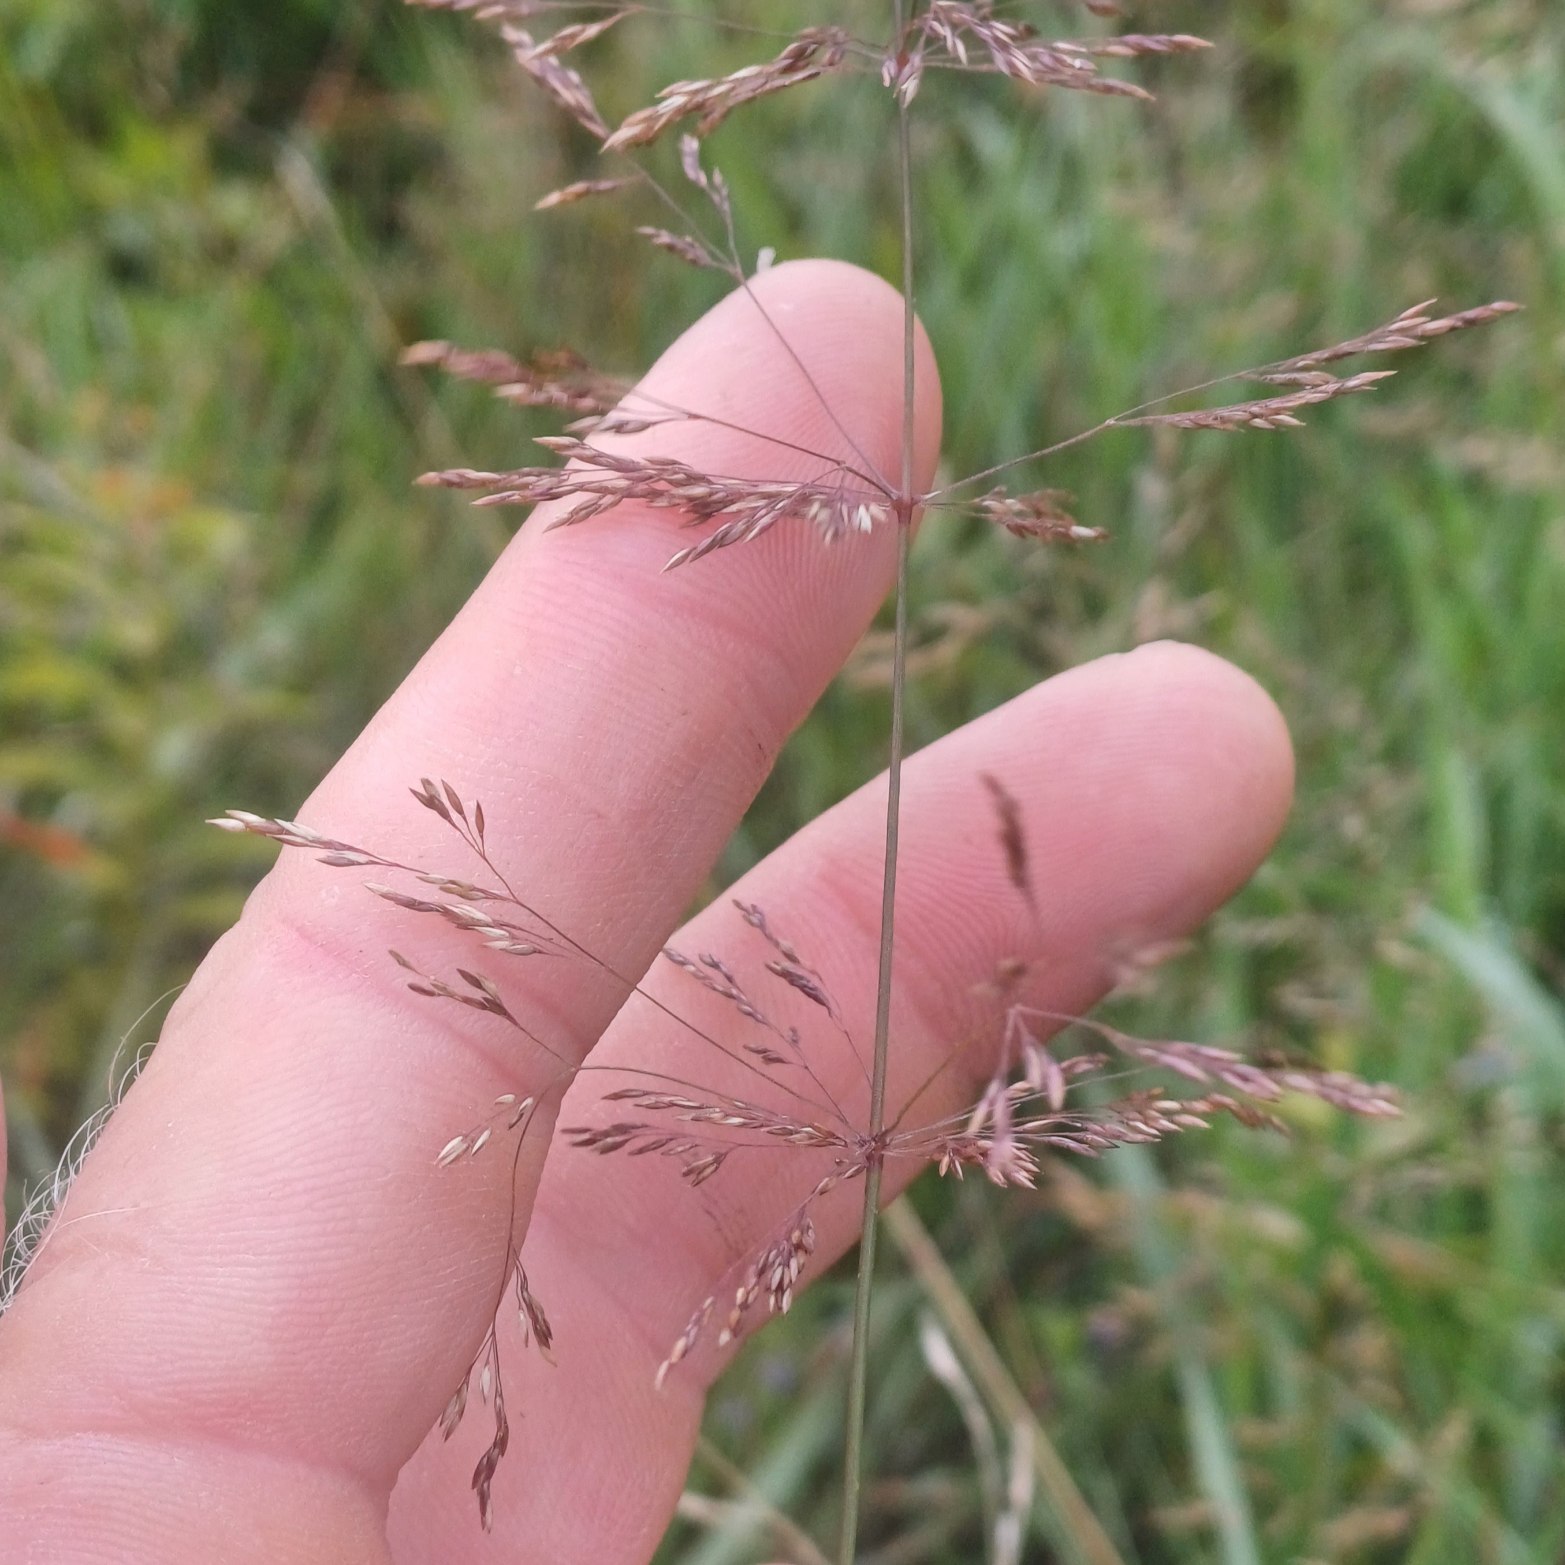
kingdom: Plantae
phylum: Tracheophyta
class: Liliopsida
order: Poales
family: Poaceae
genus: Agrostis
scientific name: Agrostis gigantea
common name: Stortoppet hvene
